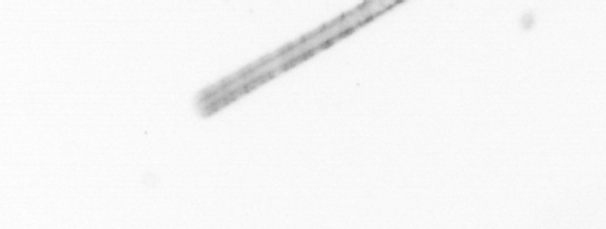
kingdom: Chromista
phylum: Ochrophyta
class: Bacillariophyceae
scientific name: Bacillariophyceae
